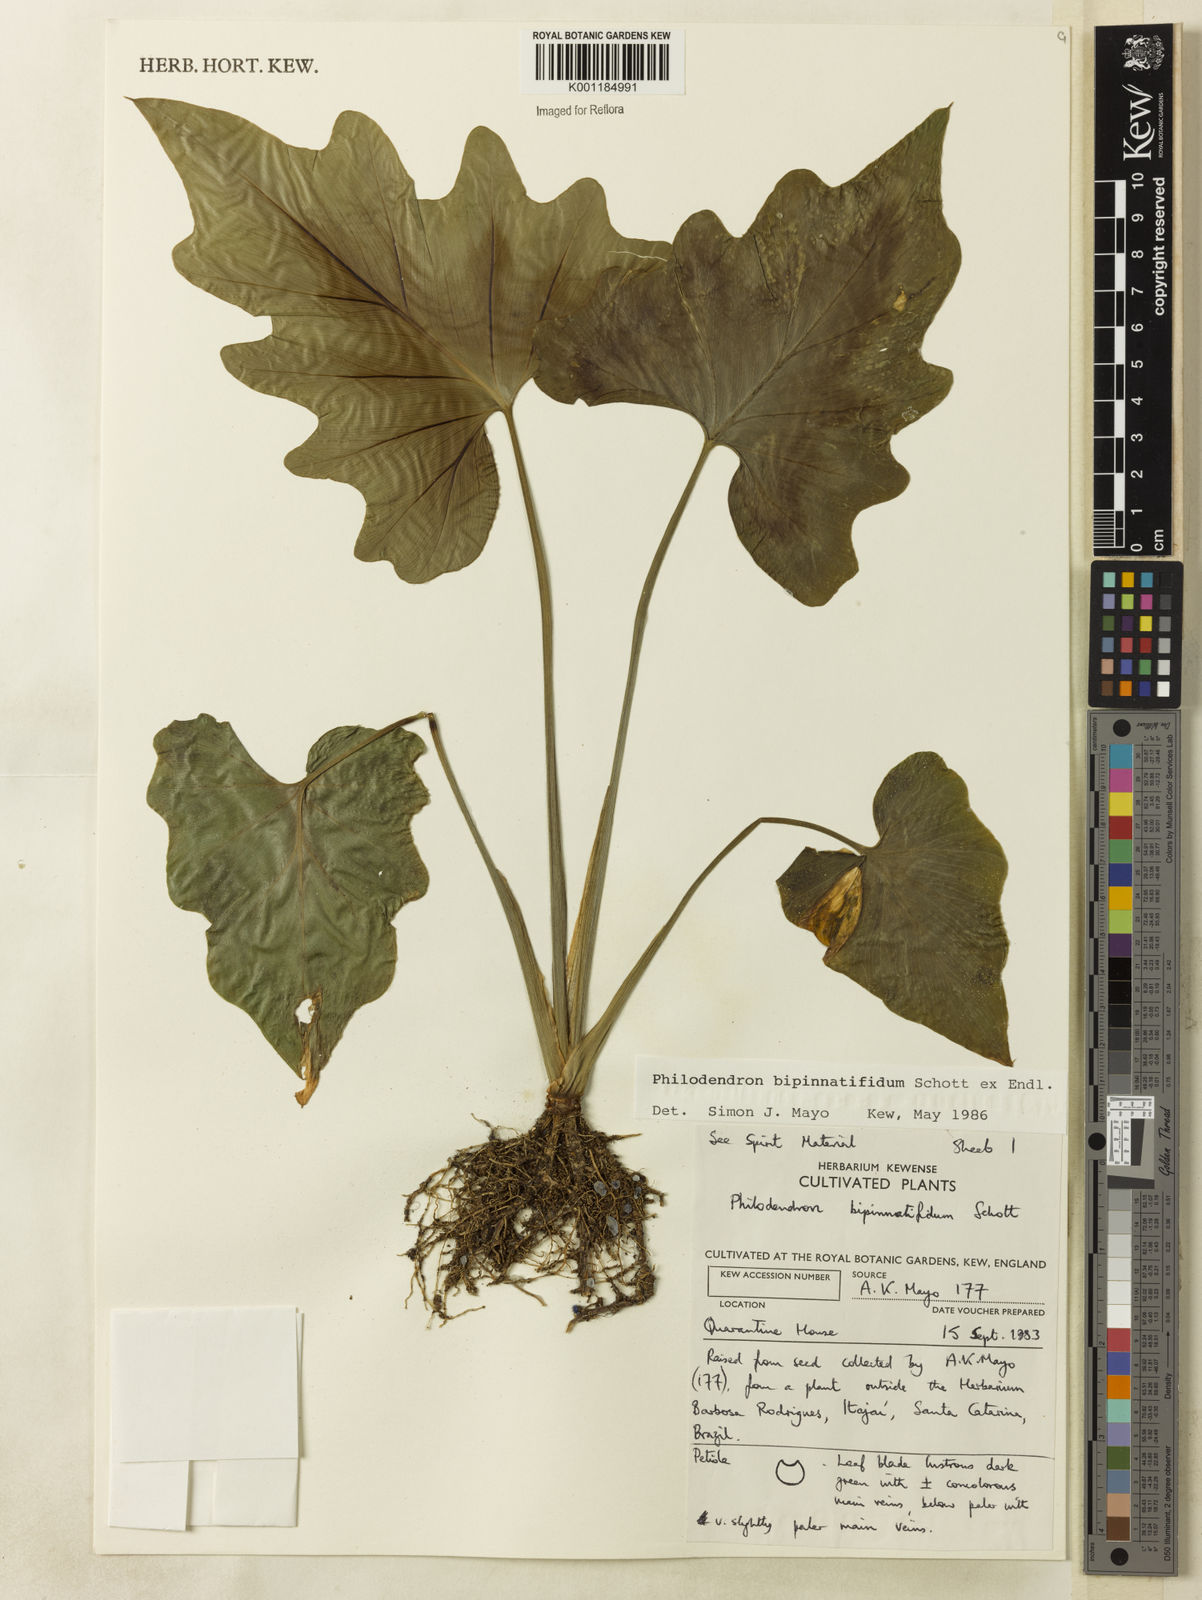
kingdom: Plantae
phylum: Tracheophyta
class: Liliopsida
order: Alismatales
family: Araceae
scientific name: Araceae
